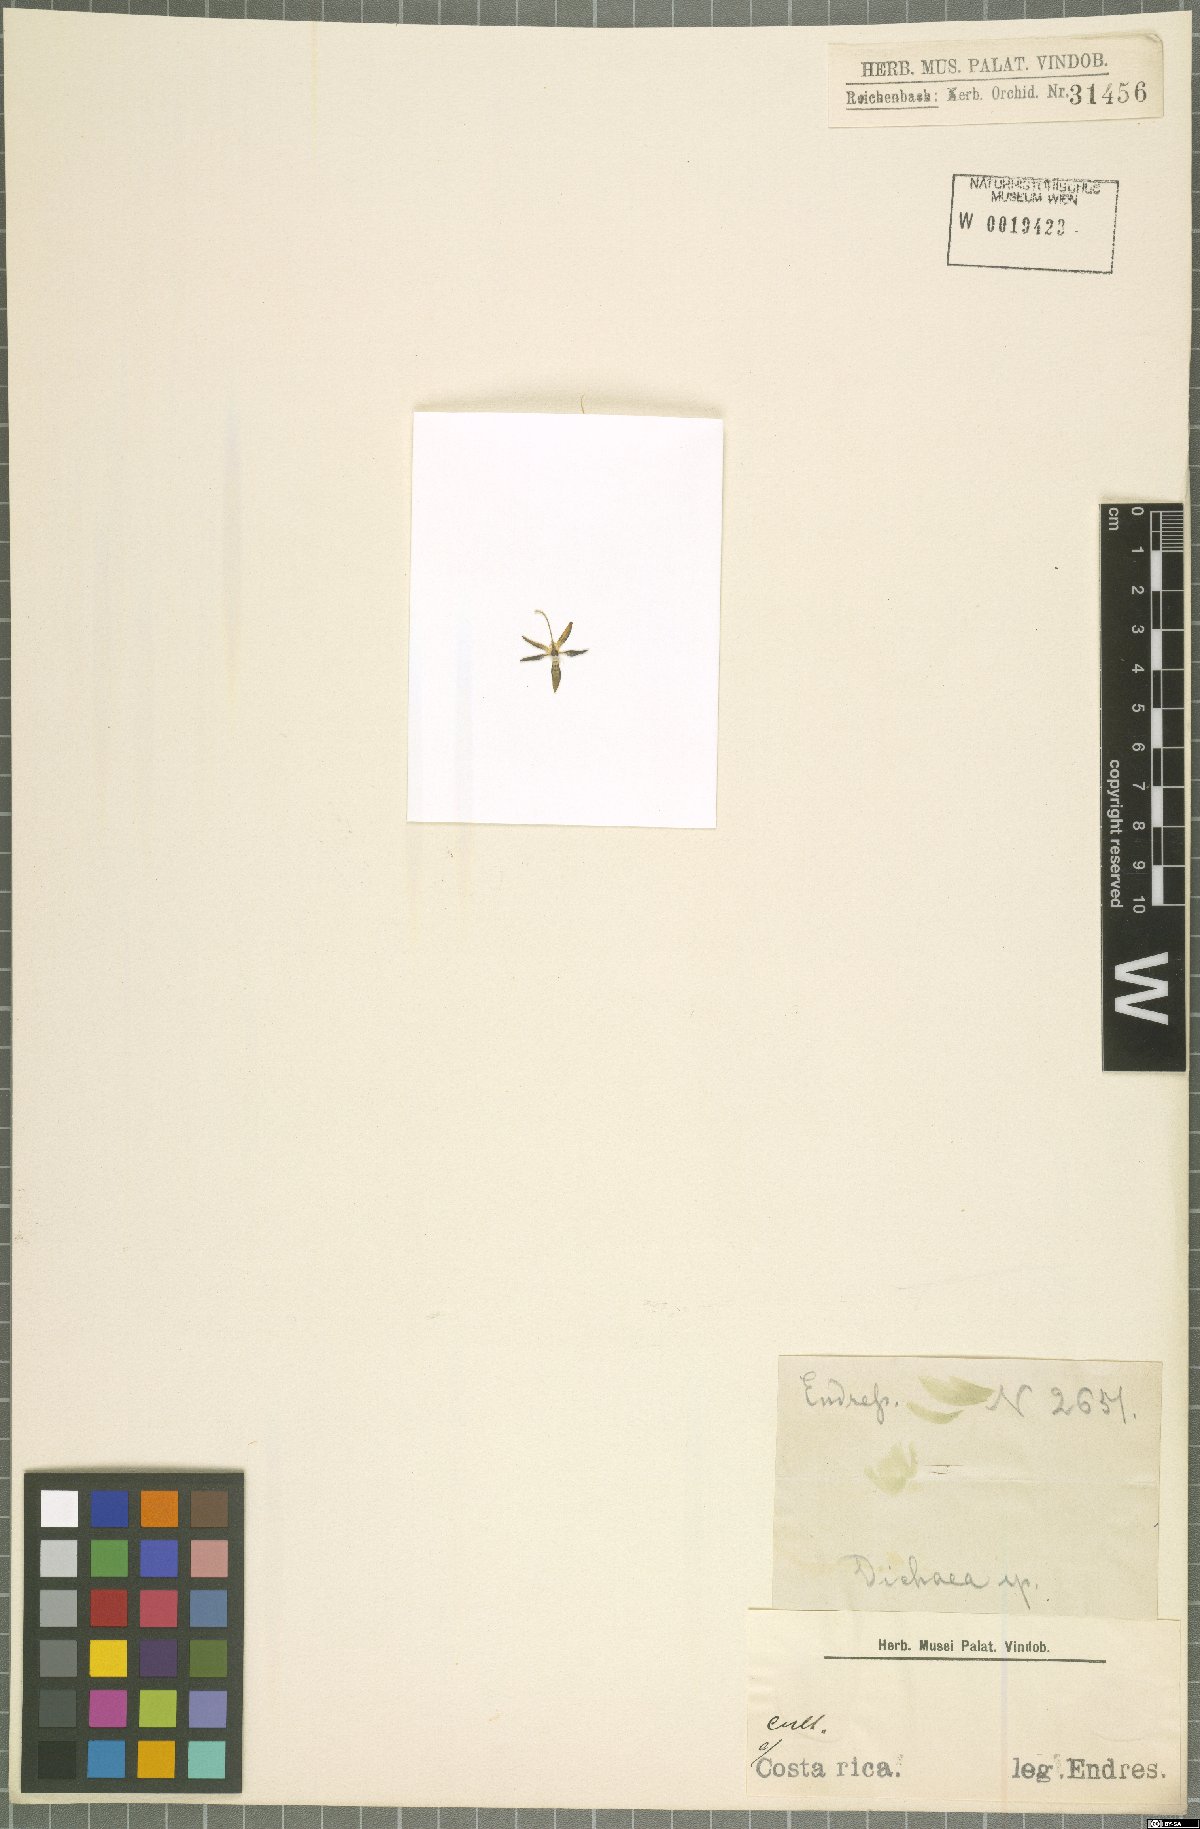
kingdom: Plantae
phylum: Tracheophyta
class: Liliopsida
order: Asparagales
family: Orchidaceae
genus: Dichaea
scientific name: Dichaea
